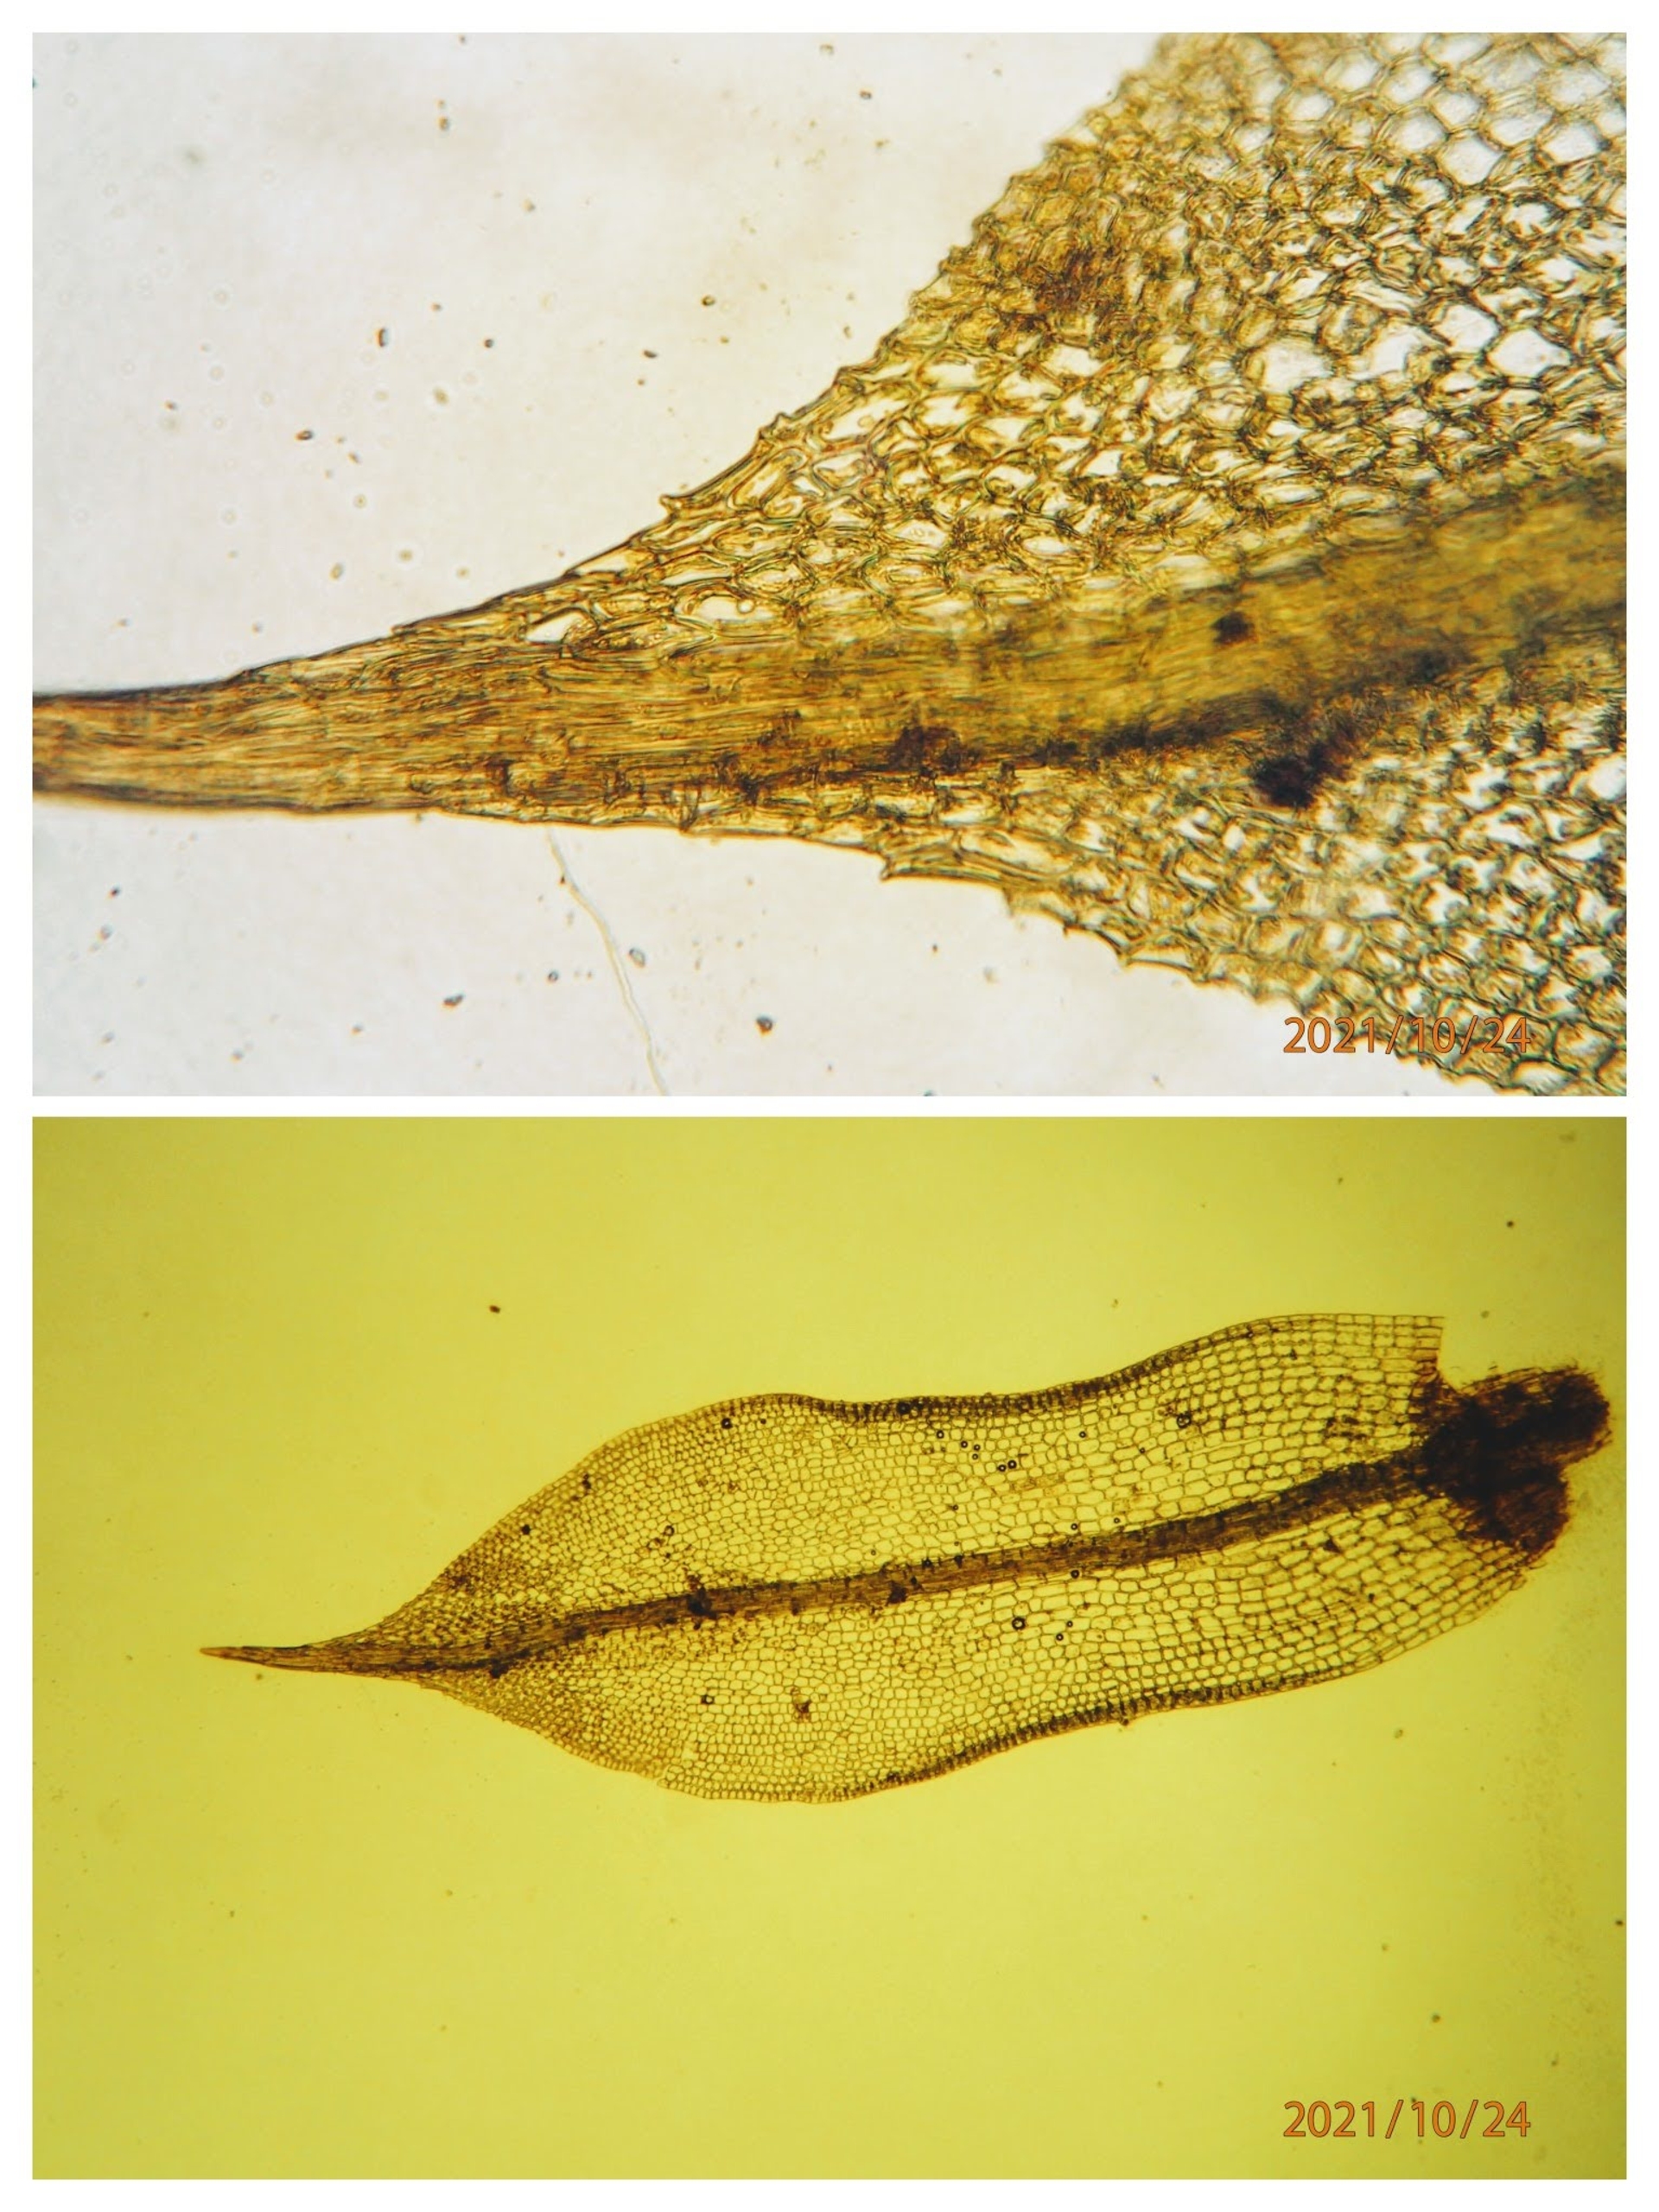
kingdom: Plantae
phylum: Bryophyta
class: Bryopsida
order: Pottiales
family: Pottiaceae
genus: Tortula
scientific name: Tortula truncata
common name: Vidmundet bægermos
